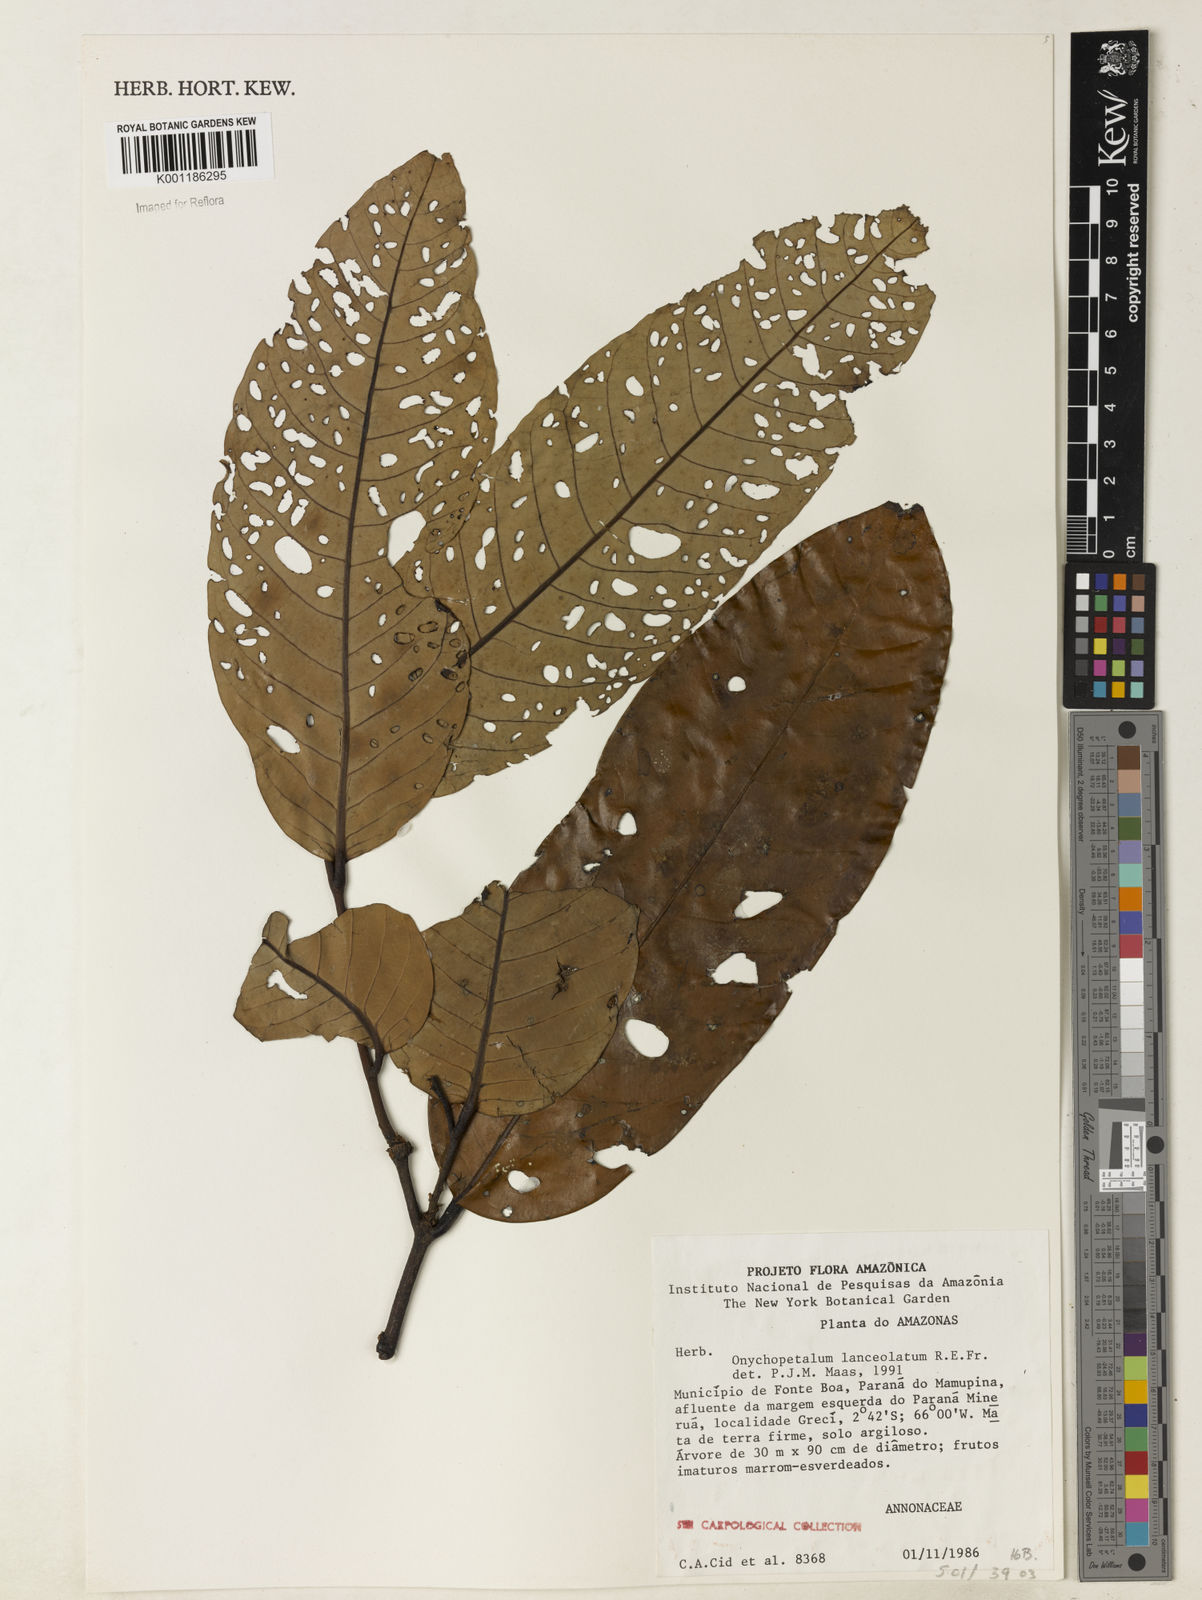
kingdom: Plantae
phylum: Tracheophyta
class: Magnoliopsida
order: Magnoliales
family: Annonaceae
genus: Onychopetalum
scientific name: Onychopetalum amazonicum
